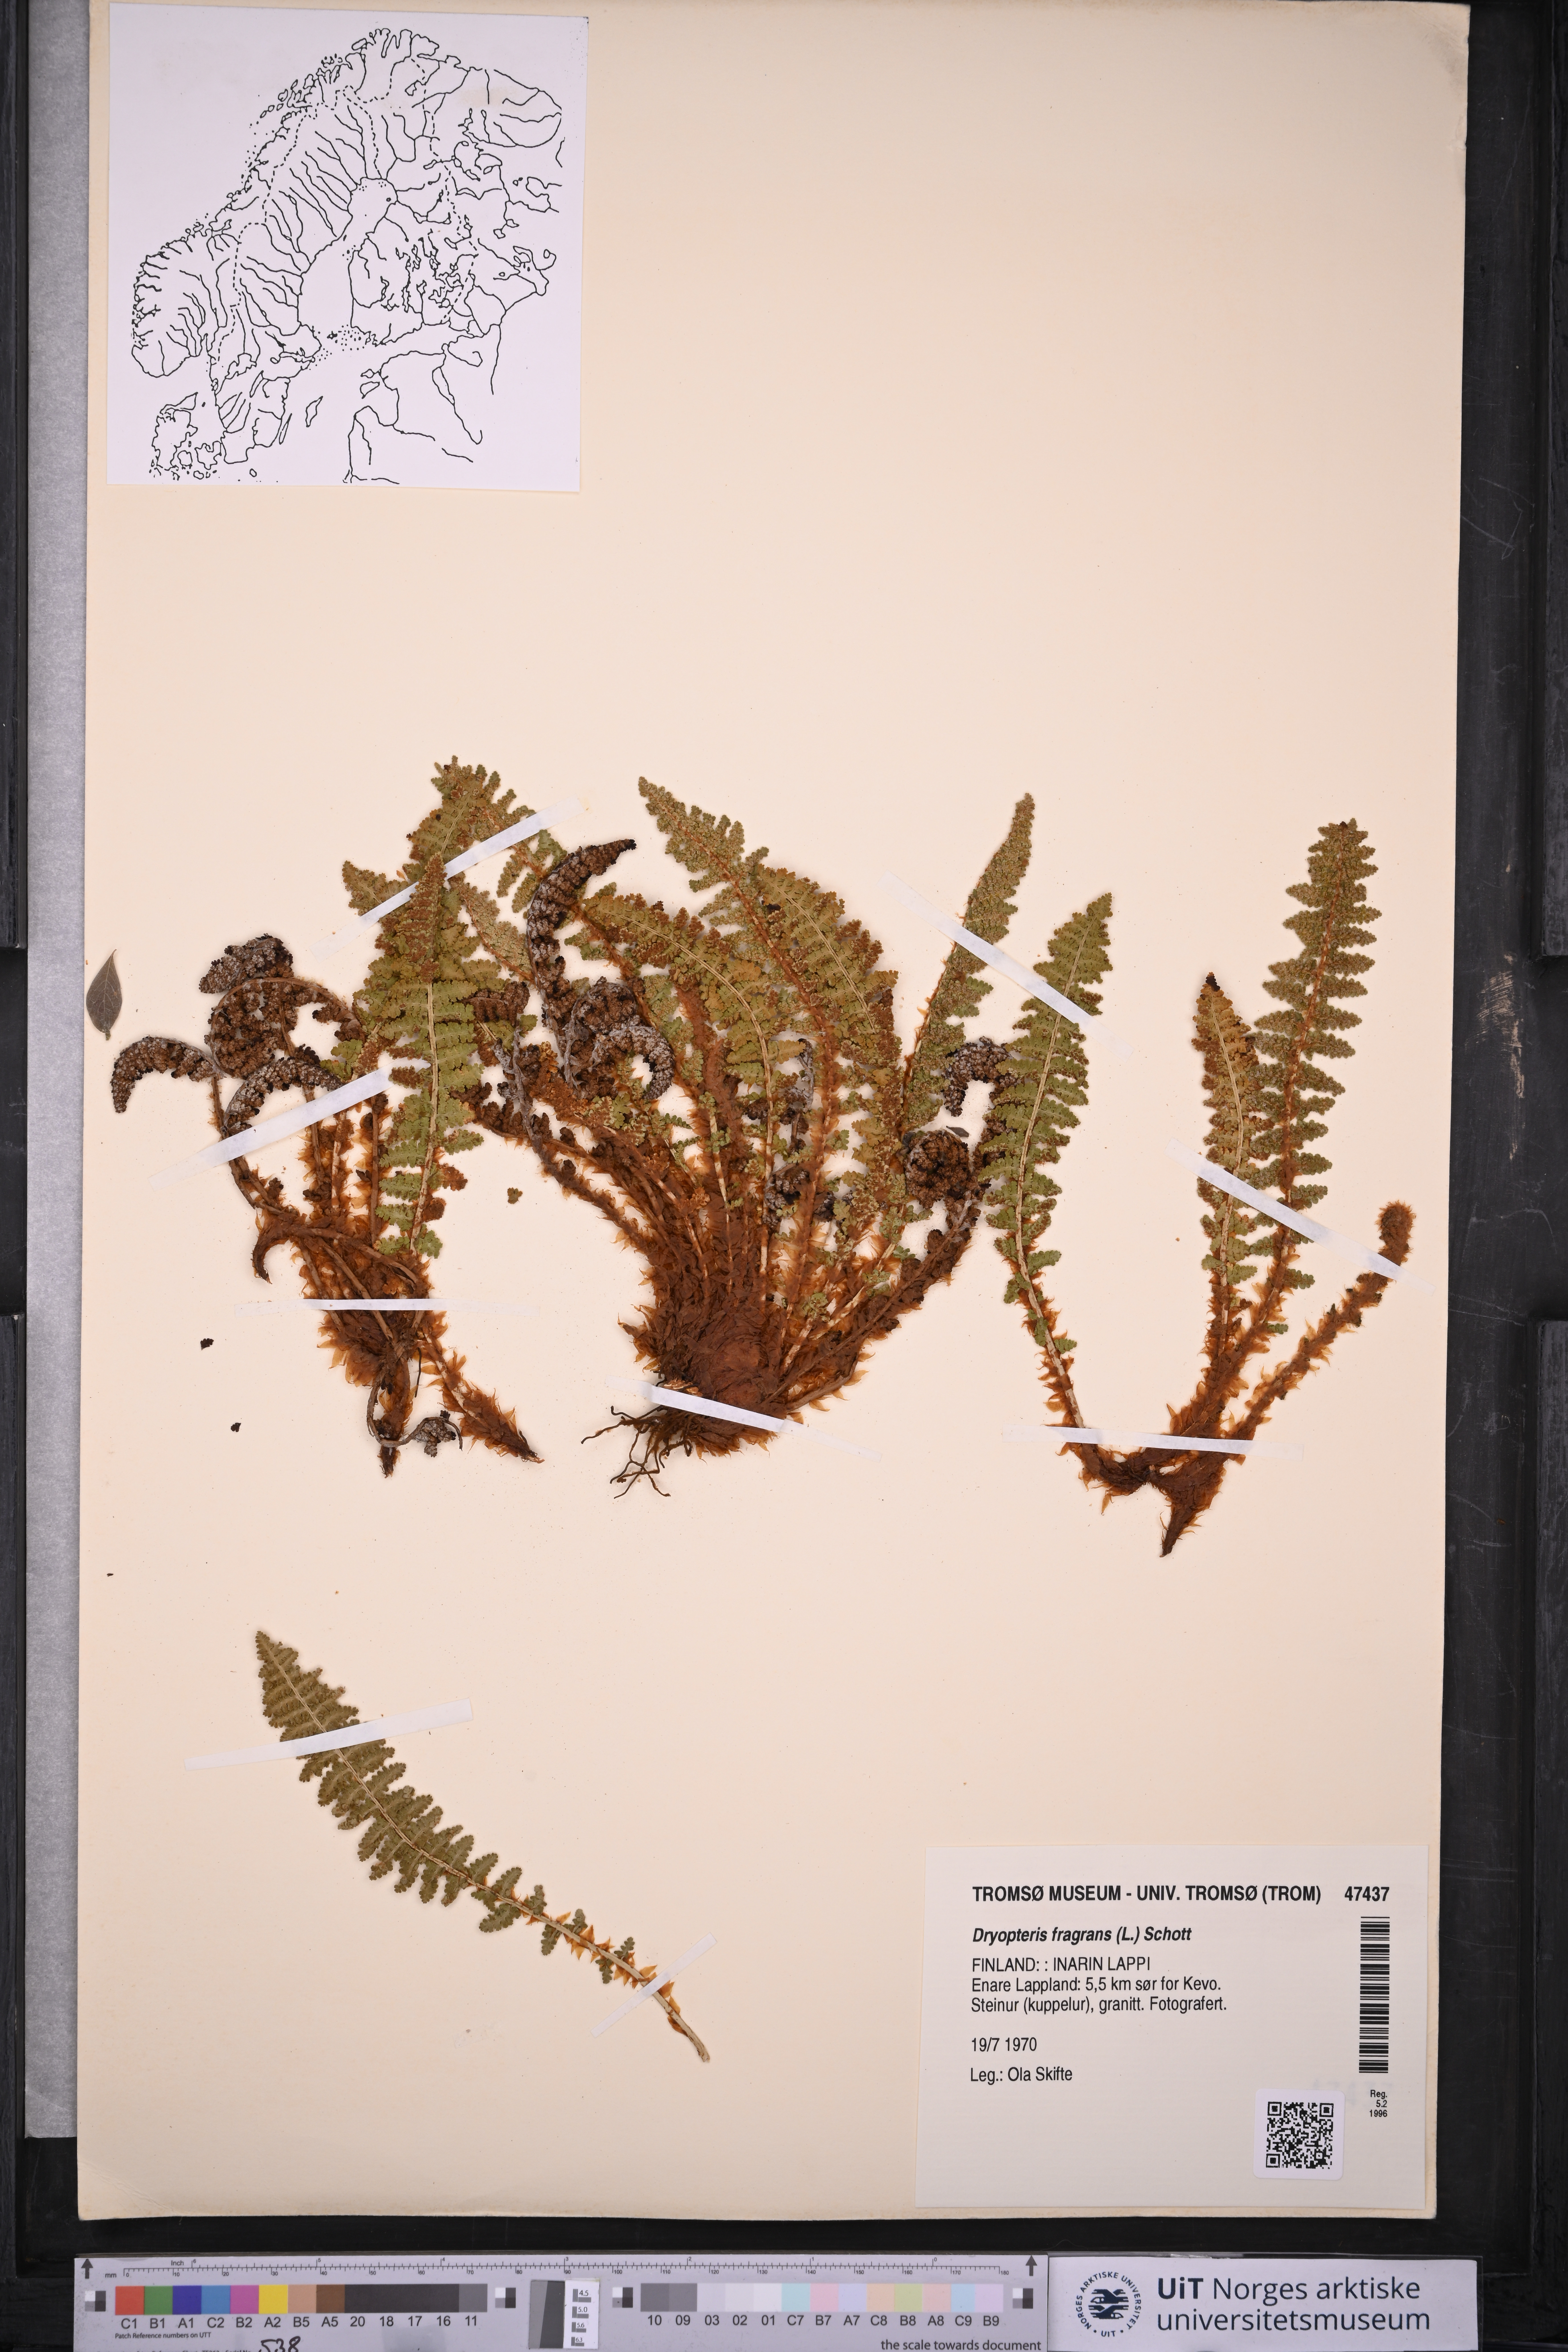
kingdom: Plantae
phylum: Tracheophyta
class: Polypodiopsida
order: Polypodiales
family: Dryopteridaceae
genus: Dryopteris
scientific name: Dryopteris fragrans
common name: Fragrant wood fern
